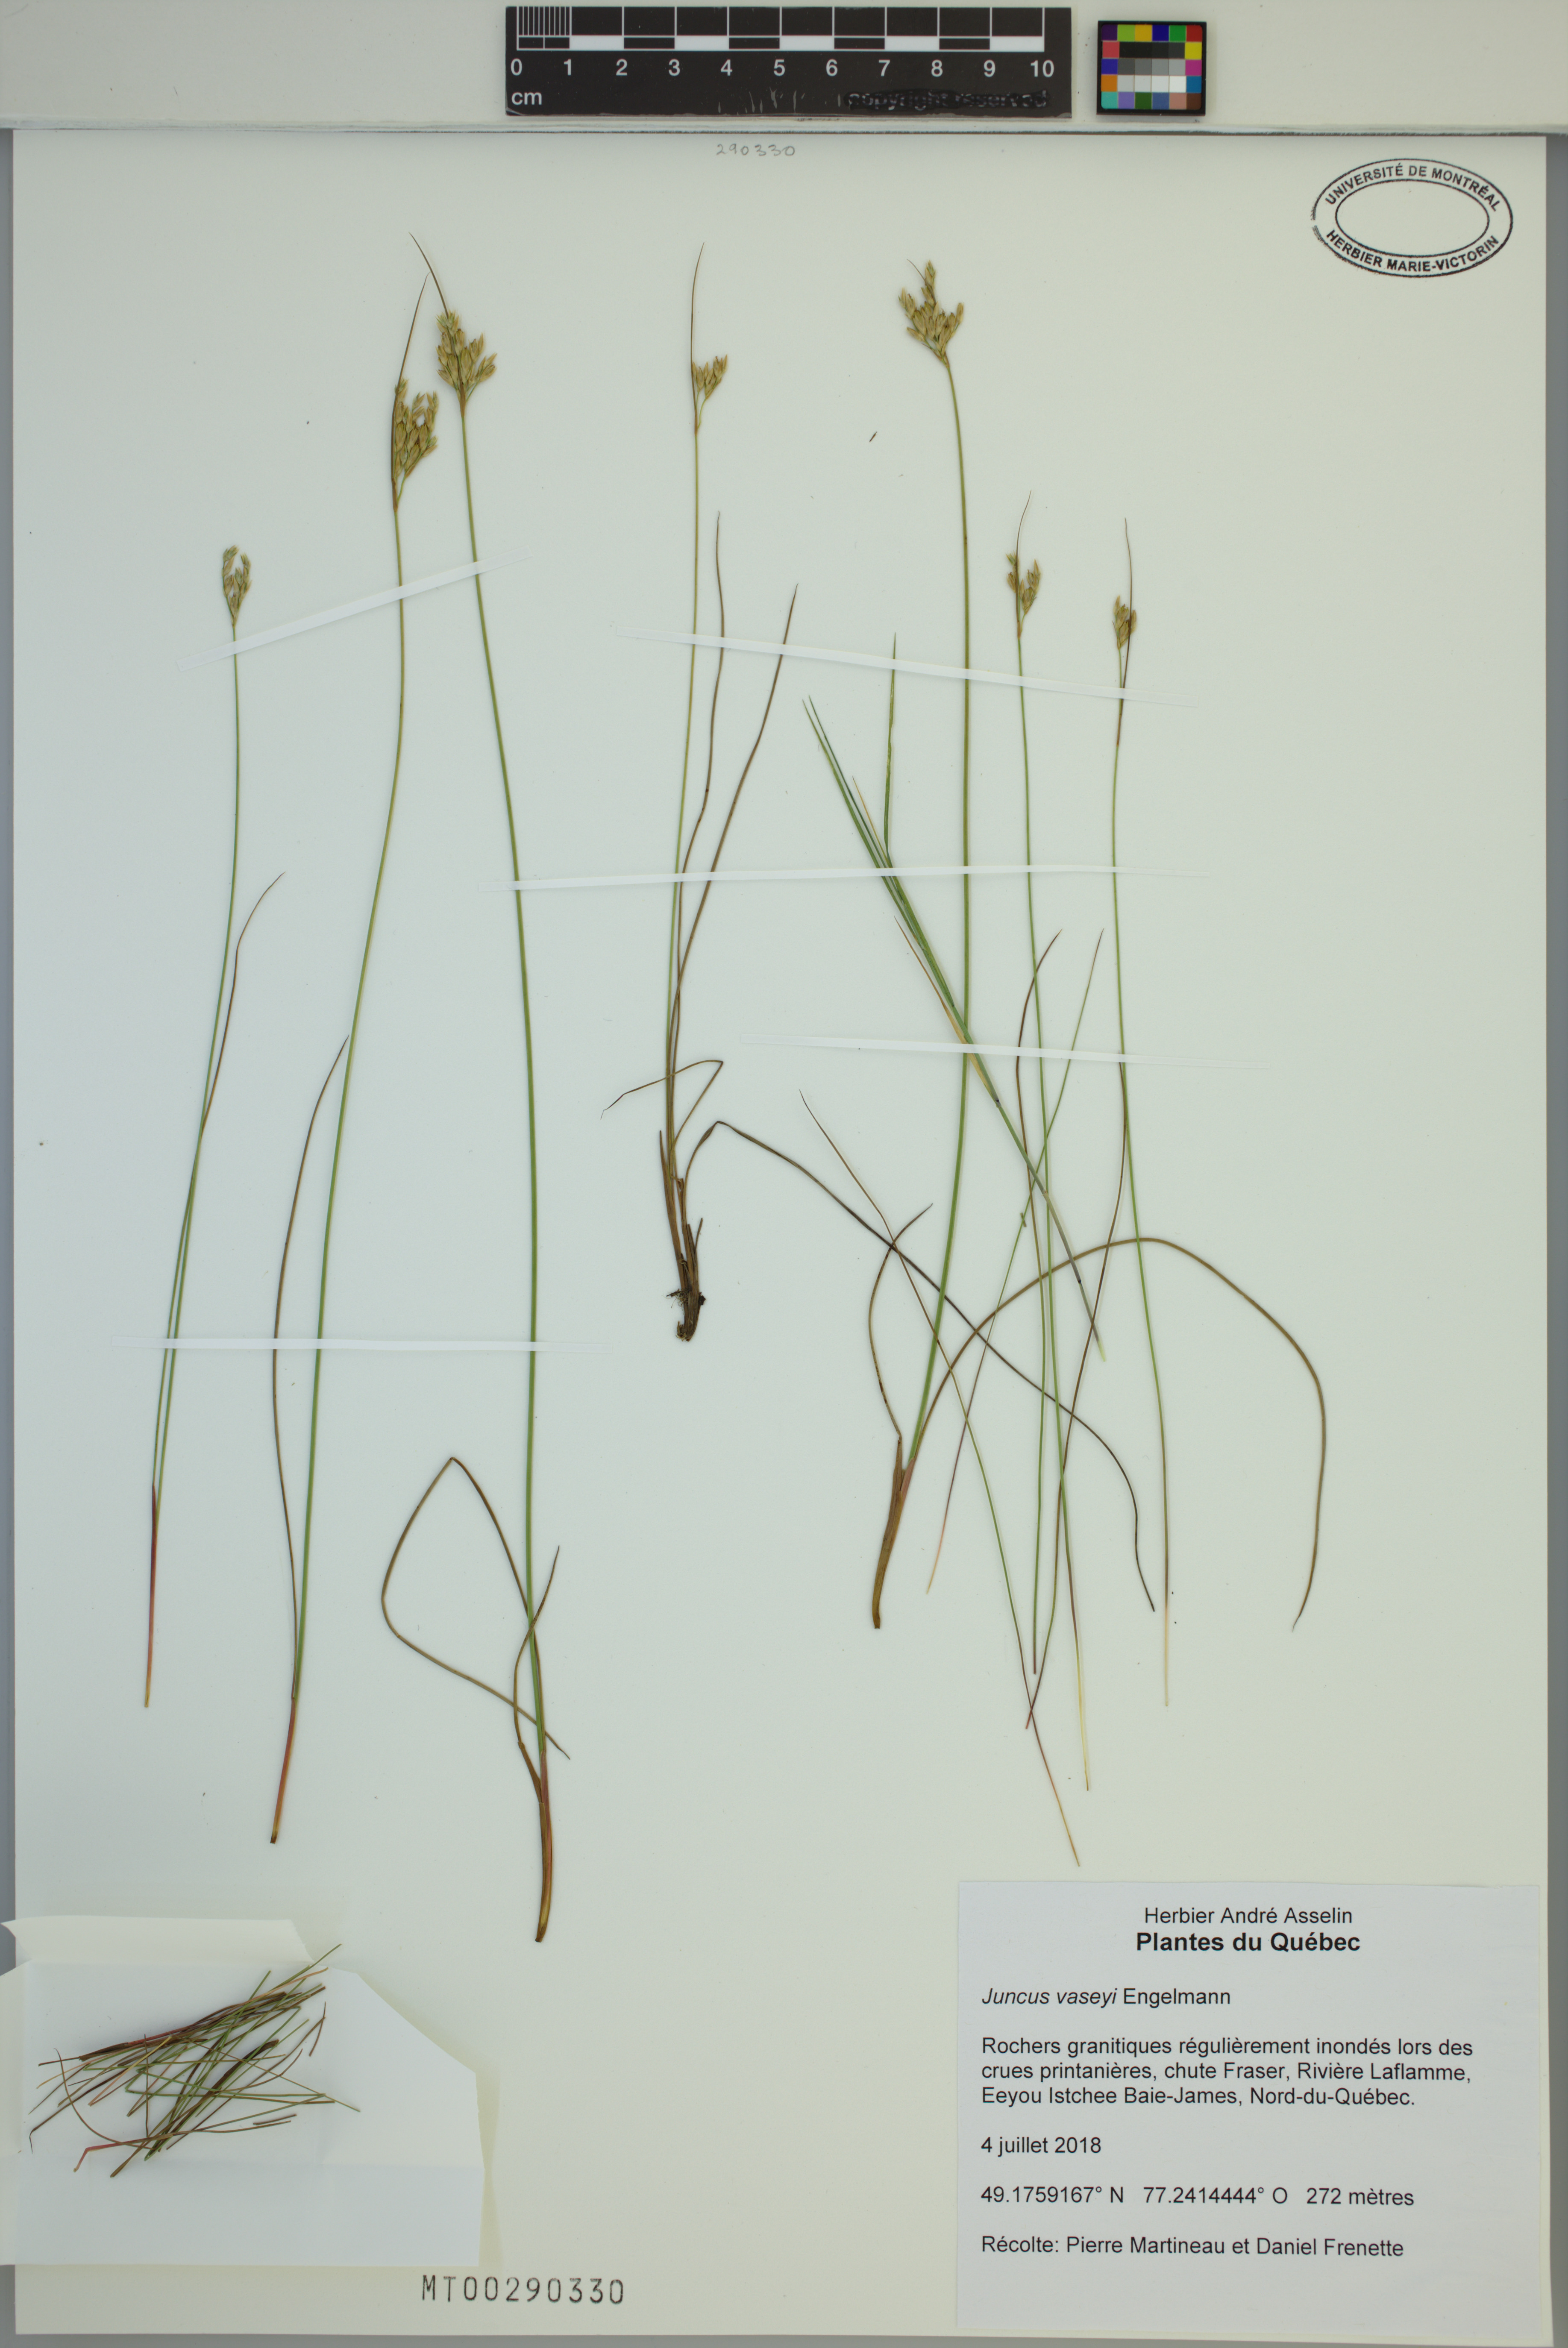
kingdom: Plantae
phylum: Tracheophyta
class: Liliopsida
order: Poales
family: Juncaceae
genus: Juncus
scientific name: Juncus vaseyi
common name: Big-headed rush
